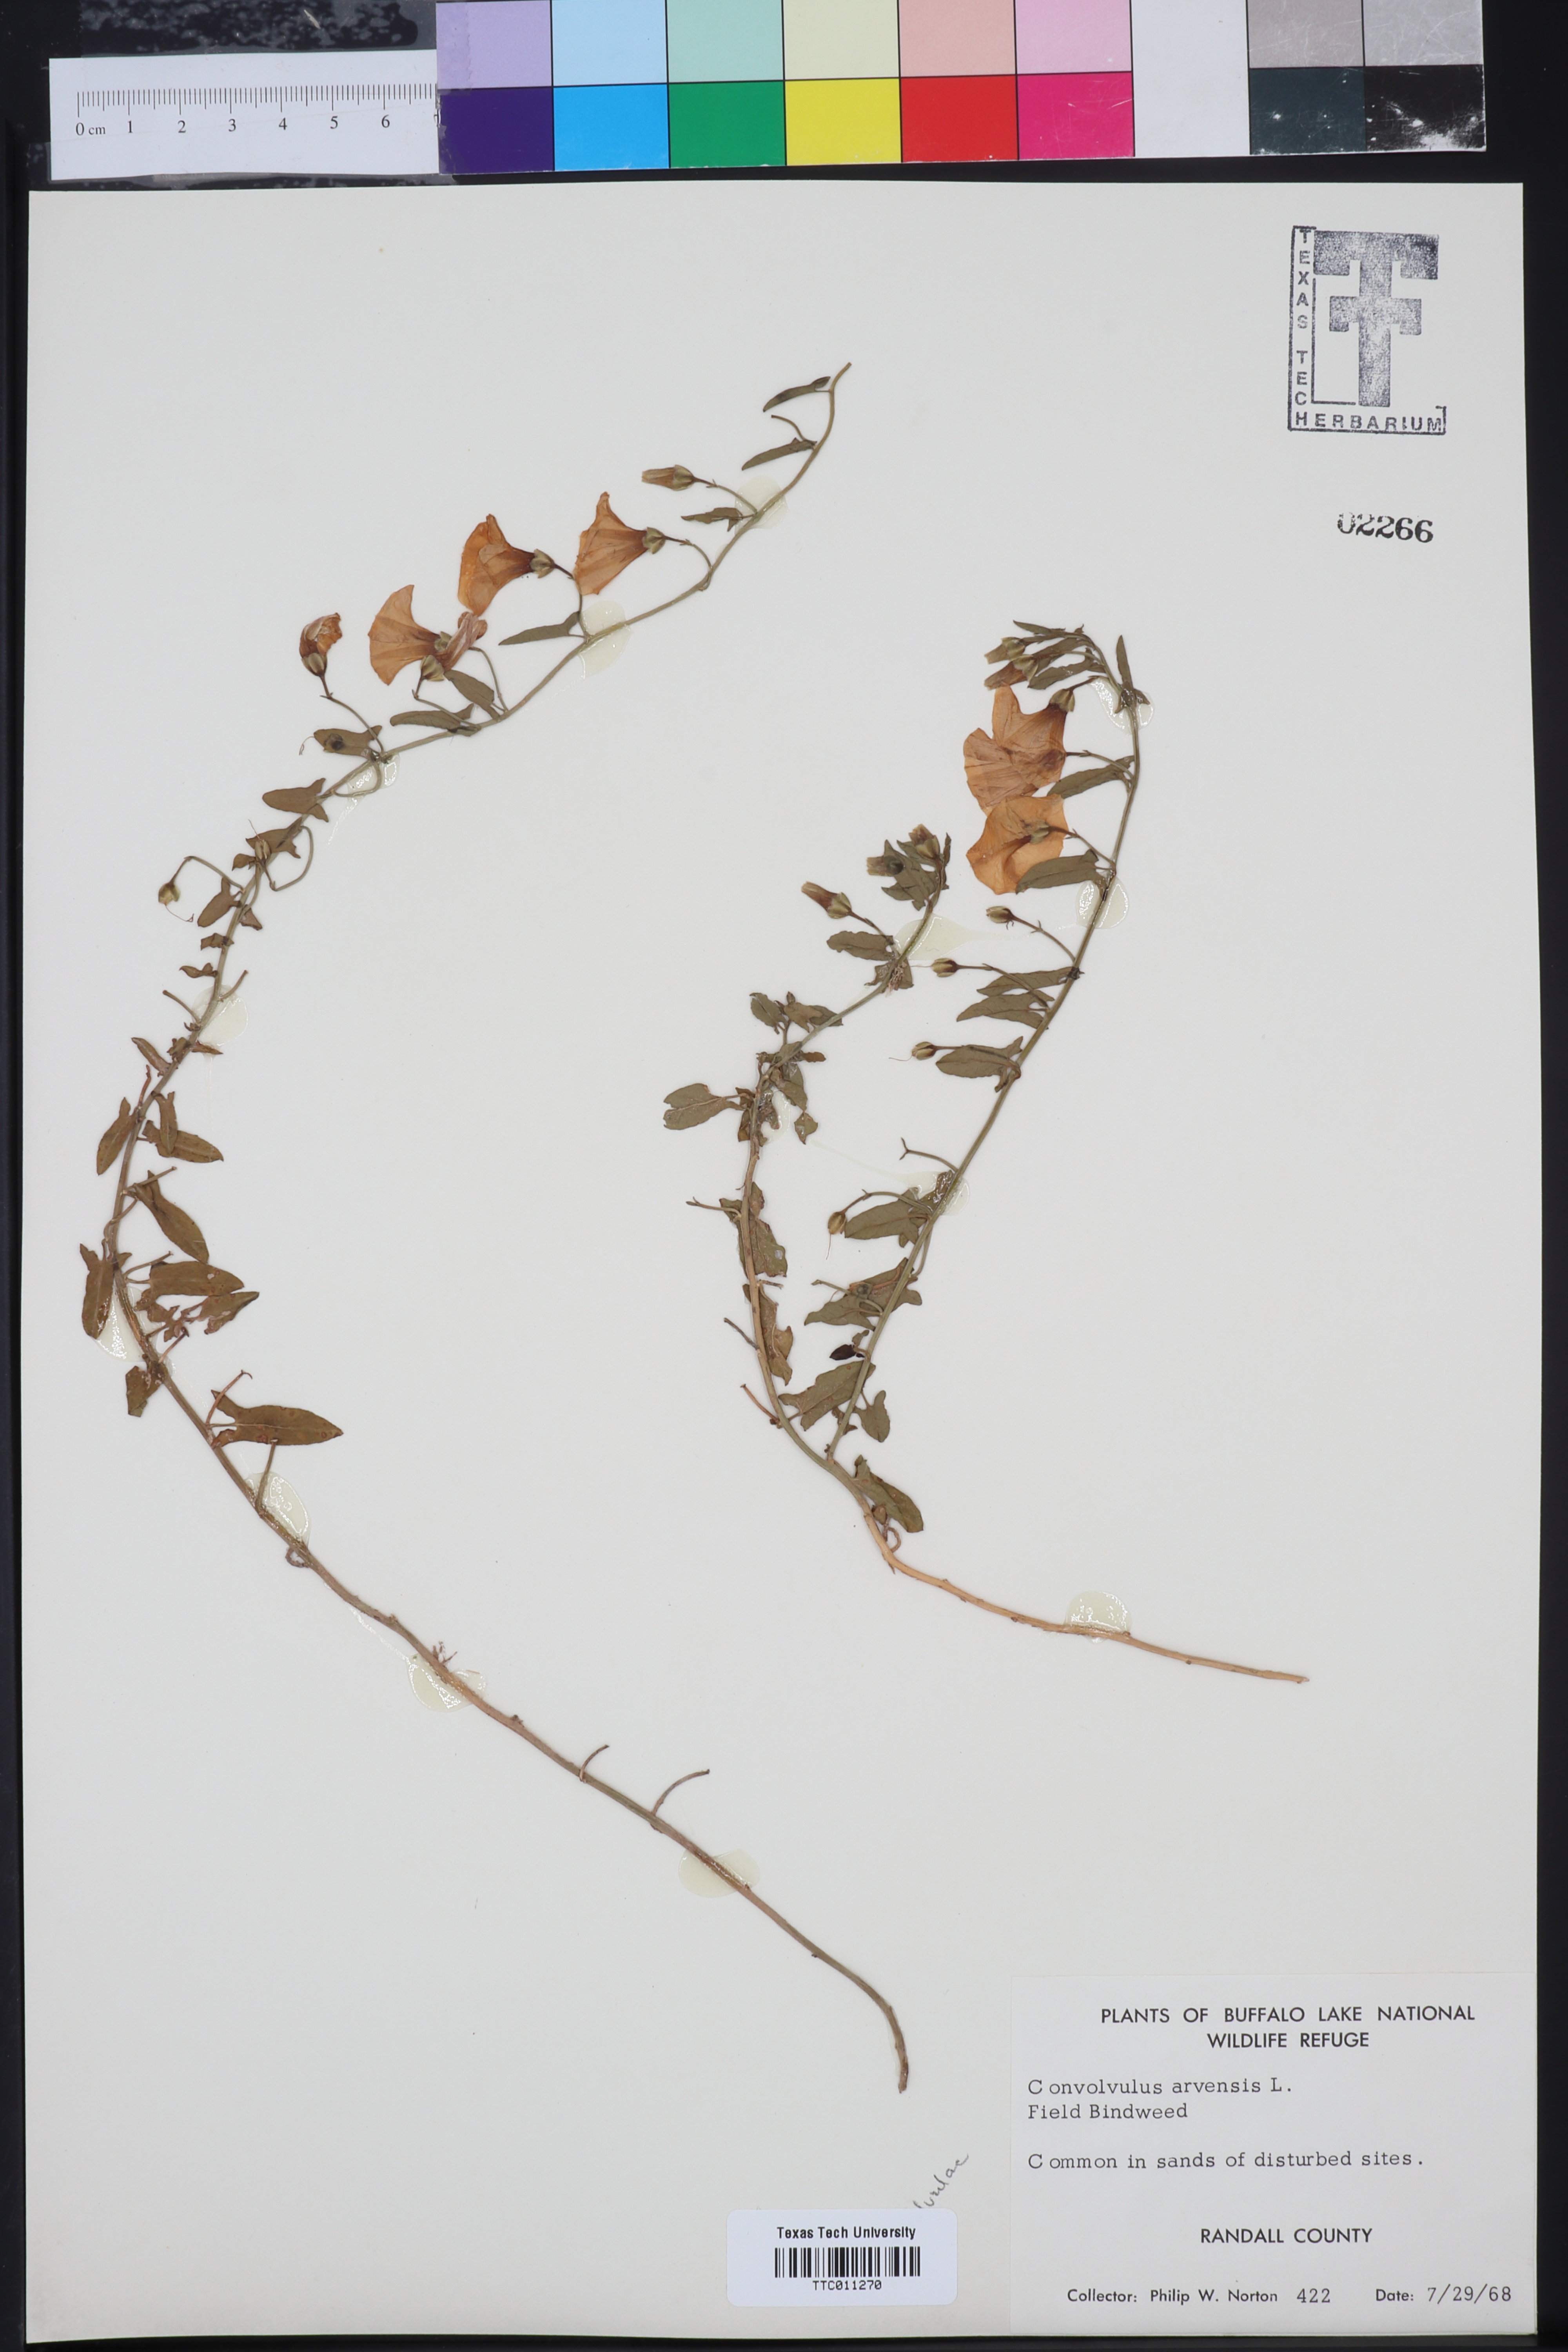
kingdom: Plantae
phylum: Tracheophyta
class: Magnoliopsida
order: Solanales
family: Convolvulaceae
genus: Convolvulus
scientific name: Convolvulus arvensis
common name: Field bindweed
